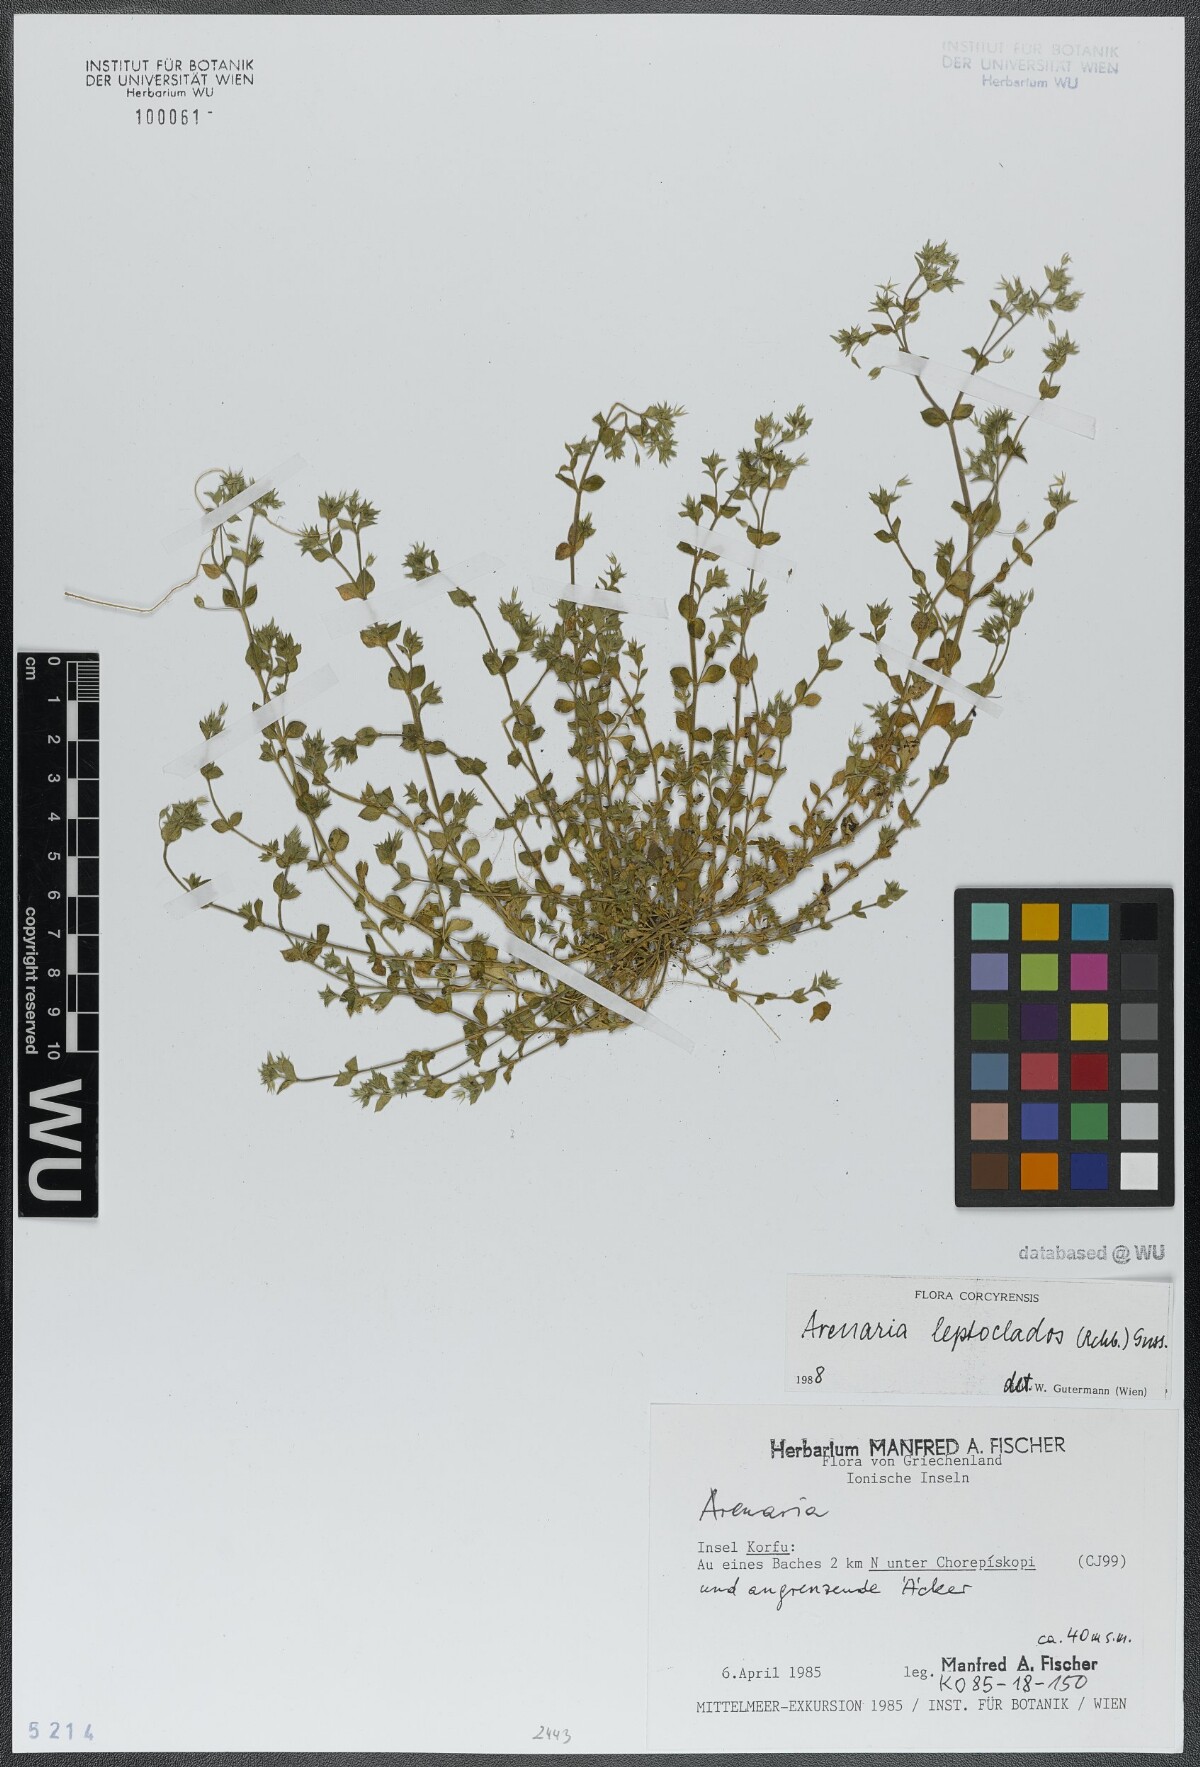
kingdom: Plantae
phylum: Tracheophyta
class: Magnoliopsida
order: Caryophyllales
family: Caryophyllaceae
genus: Arenaria
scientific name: Arenaria leptoclados
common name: Thyme-leaved sandwort
